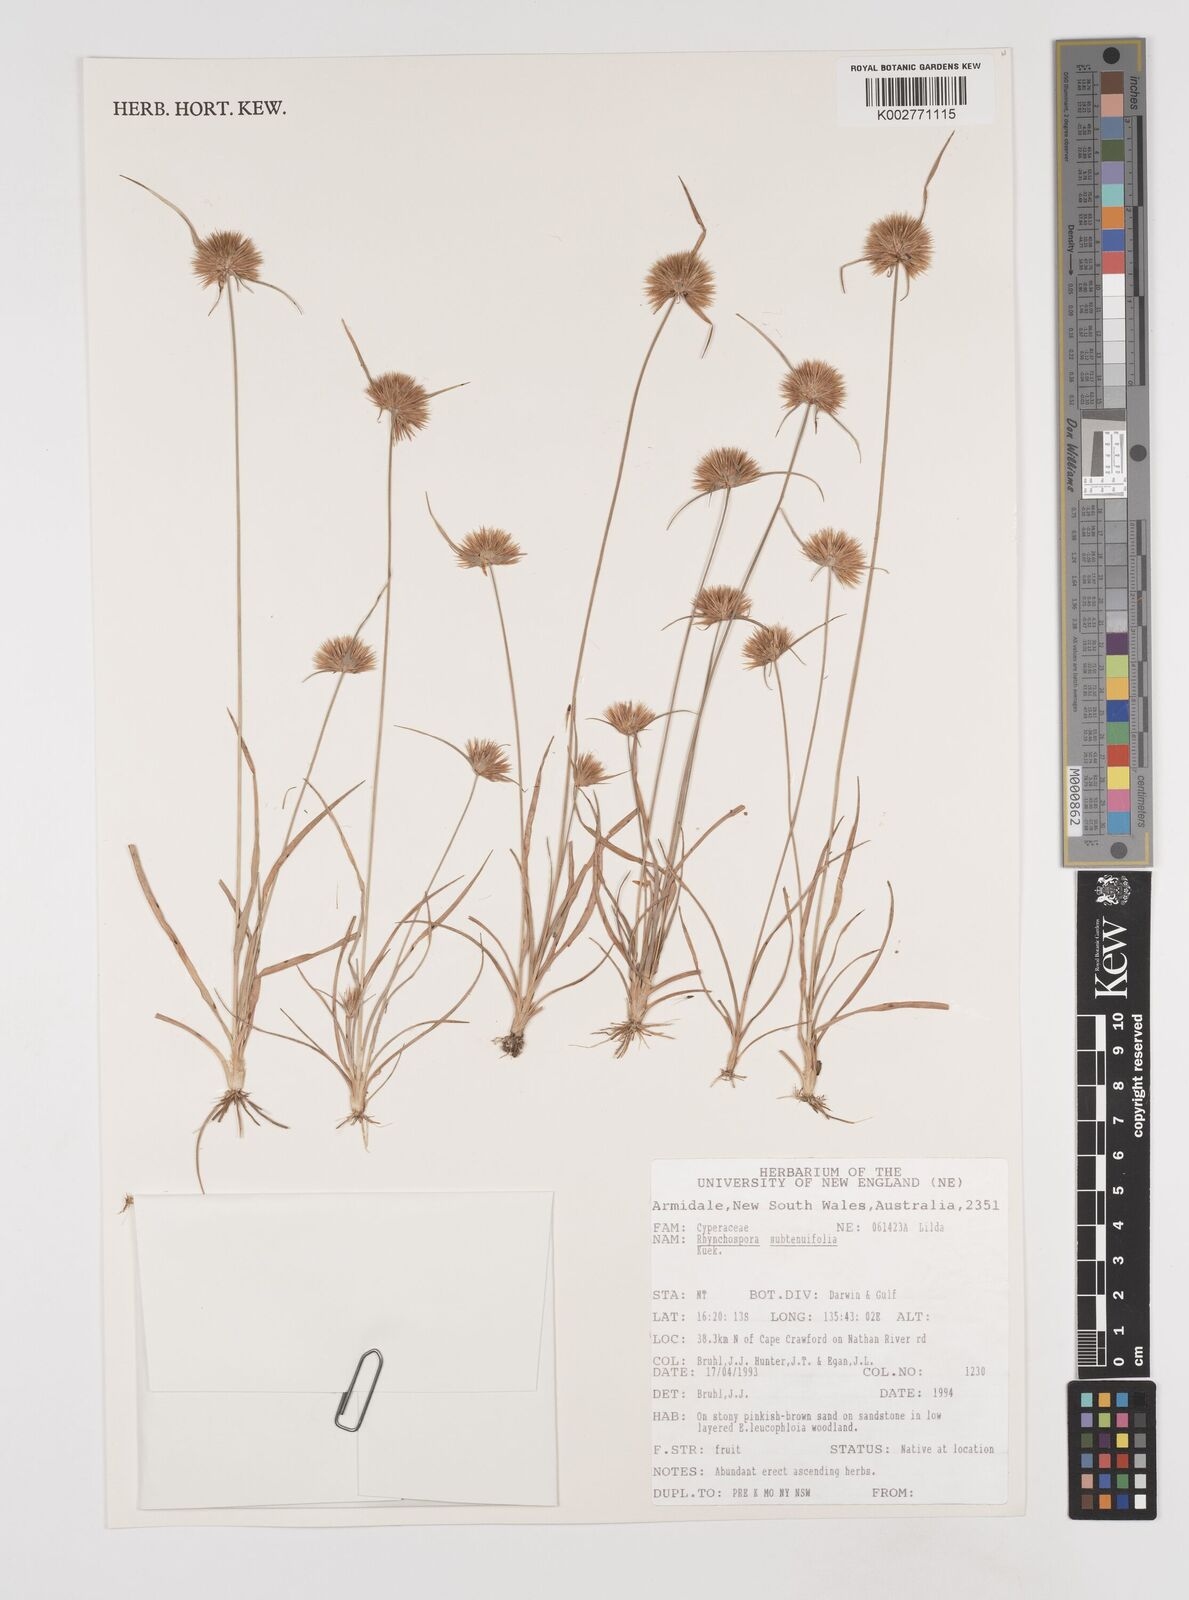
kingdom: Plantae
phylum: Tracheophyta
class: Liliopsida
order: Poales
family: Cyperaceae
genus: Rhynchospora
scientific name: Rhynchospora subtenuifolia
